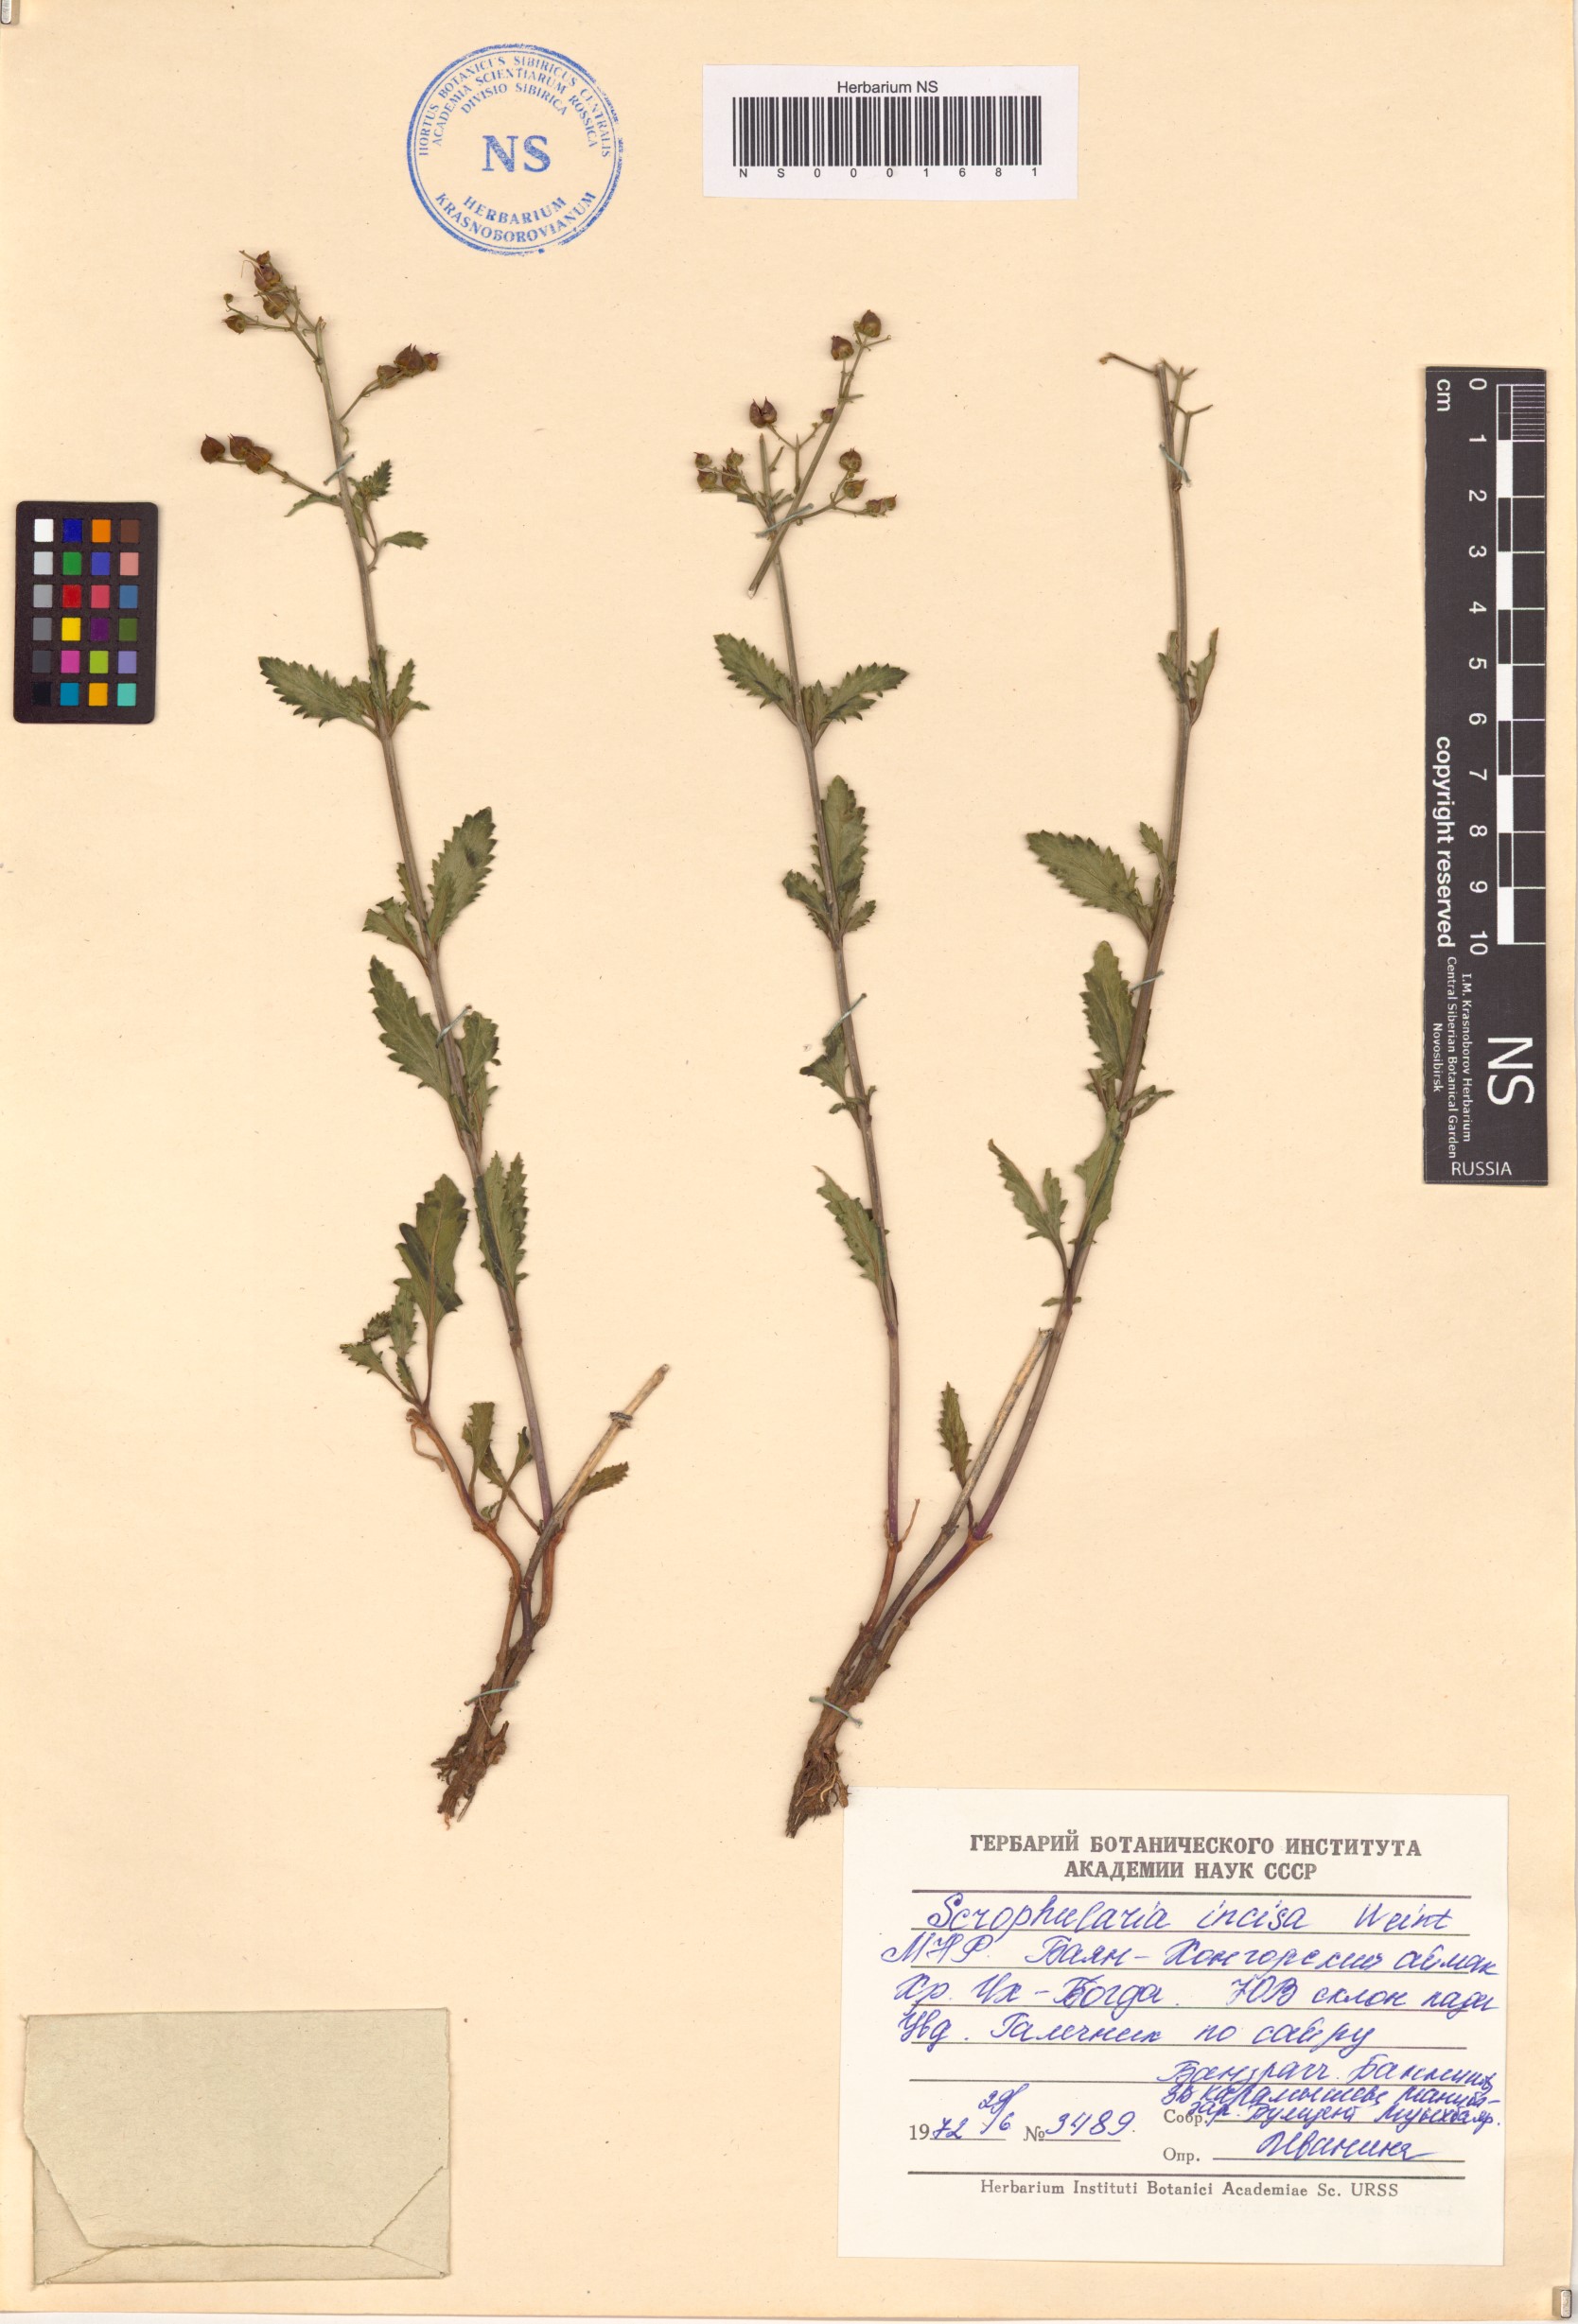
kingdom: Plantae
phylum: Tracheophyta
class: Magnoliopsida
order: Lamiales
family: Scrophulariaceae
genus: Scrophularia
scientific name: Scrophularia incisa
